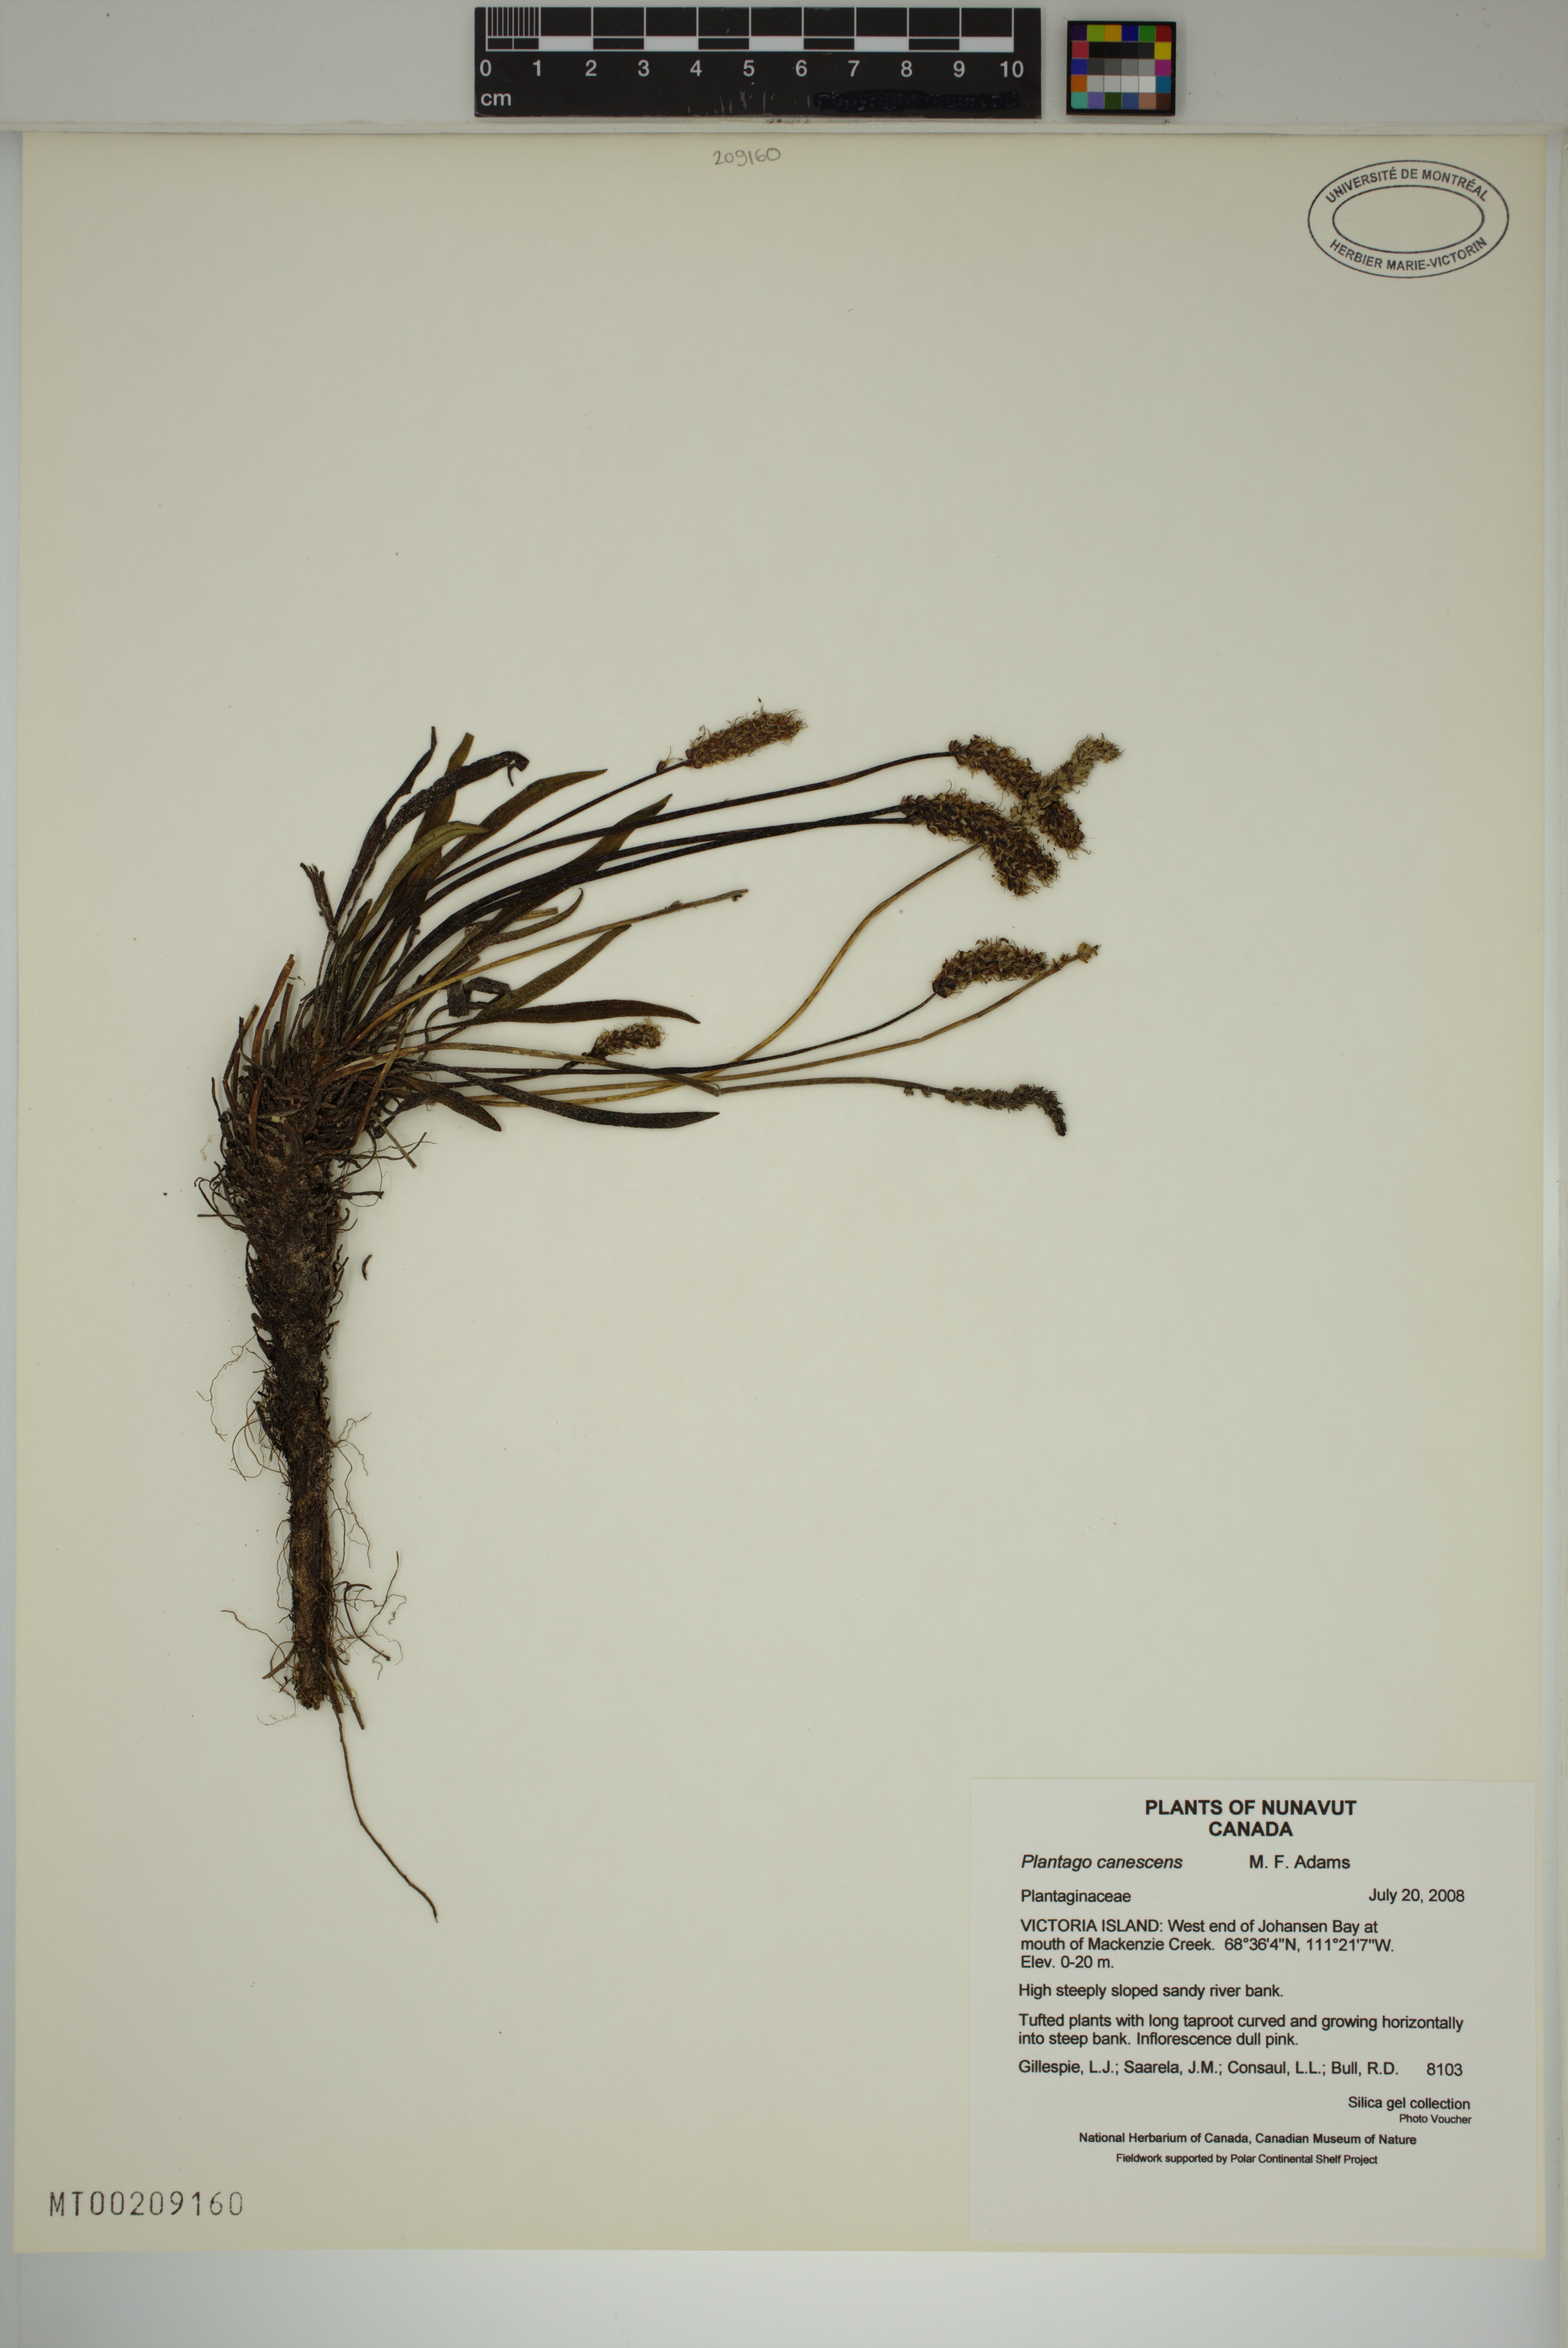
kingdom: Plantae
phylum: Tracheophyta
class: Magnoliopsida
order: Lamiales
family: Plantaginaceae
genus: Plantago
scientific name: Plantago canescens
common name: Siberian plantain
